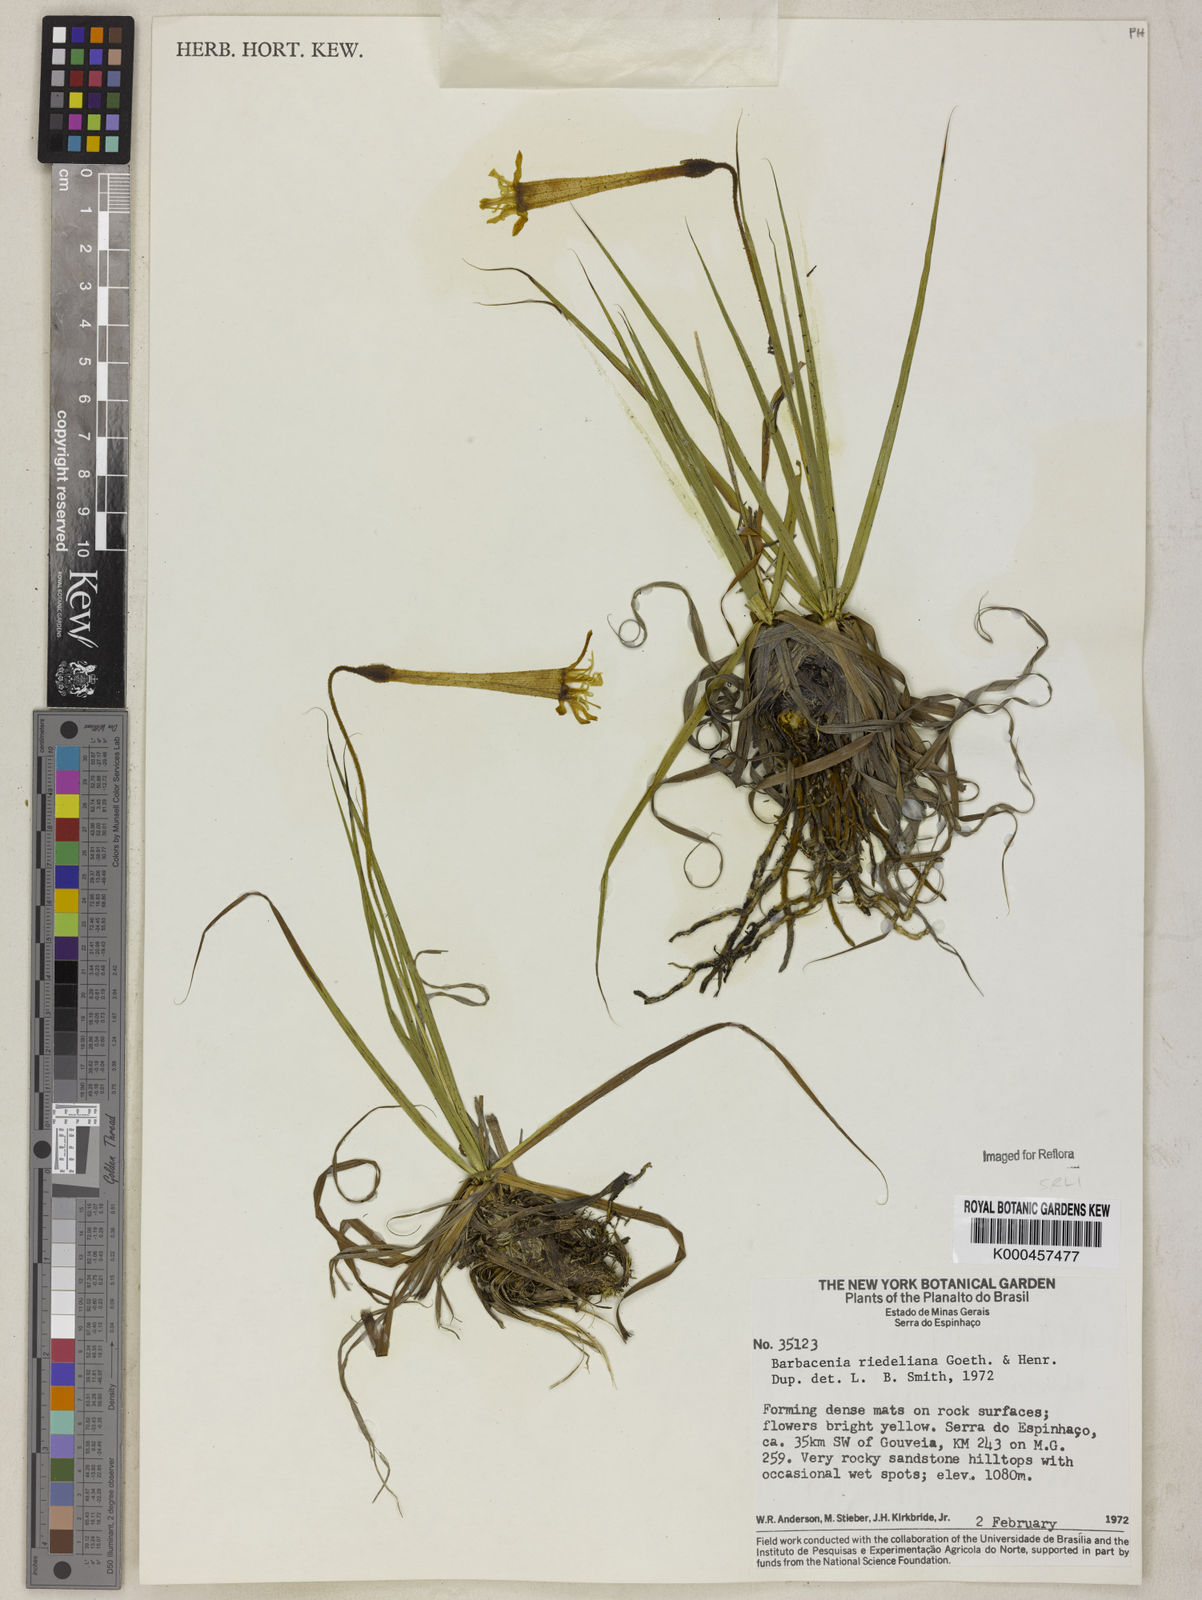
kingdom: Plantae
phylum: Tracheophyta
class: Liliopsida
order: Pandanales
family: Velloziaceae
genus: Barbacenia
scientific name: Barbacenia riedeliana
